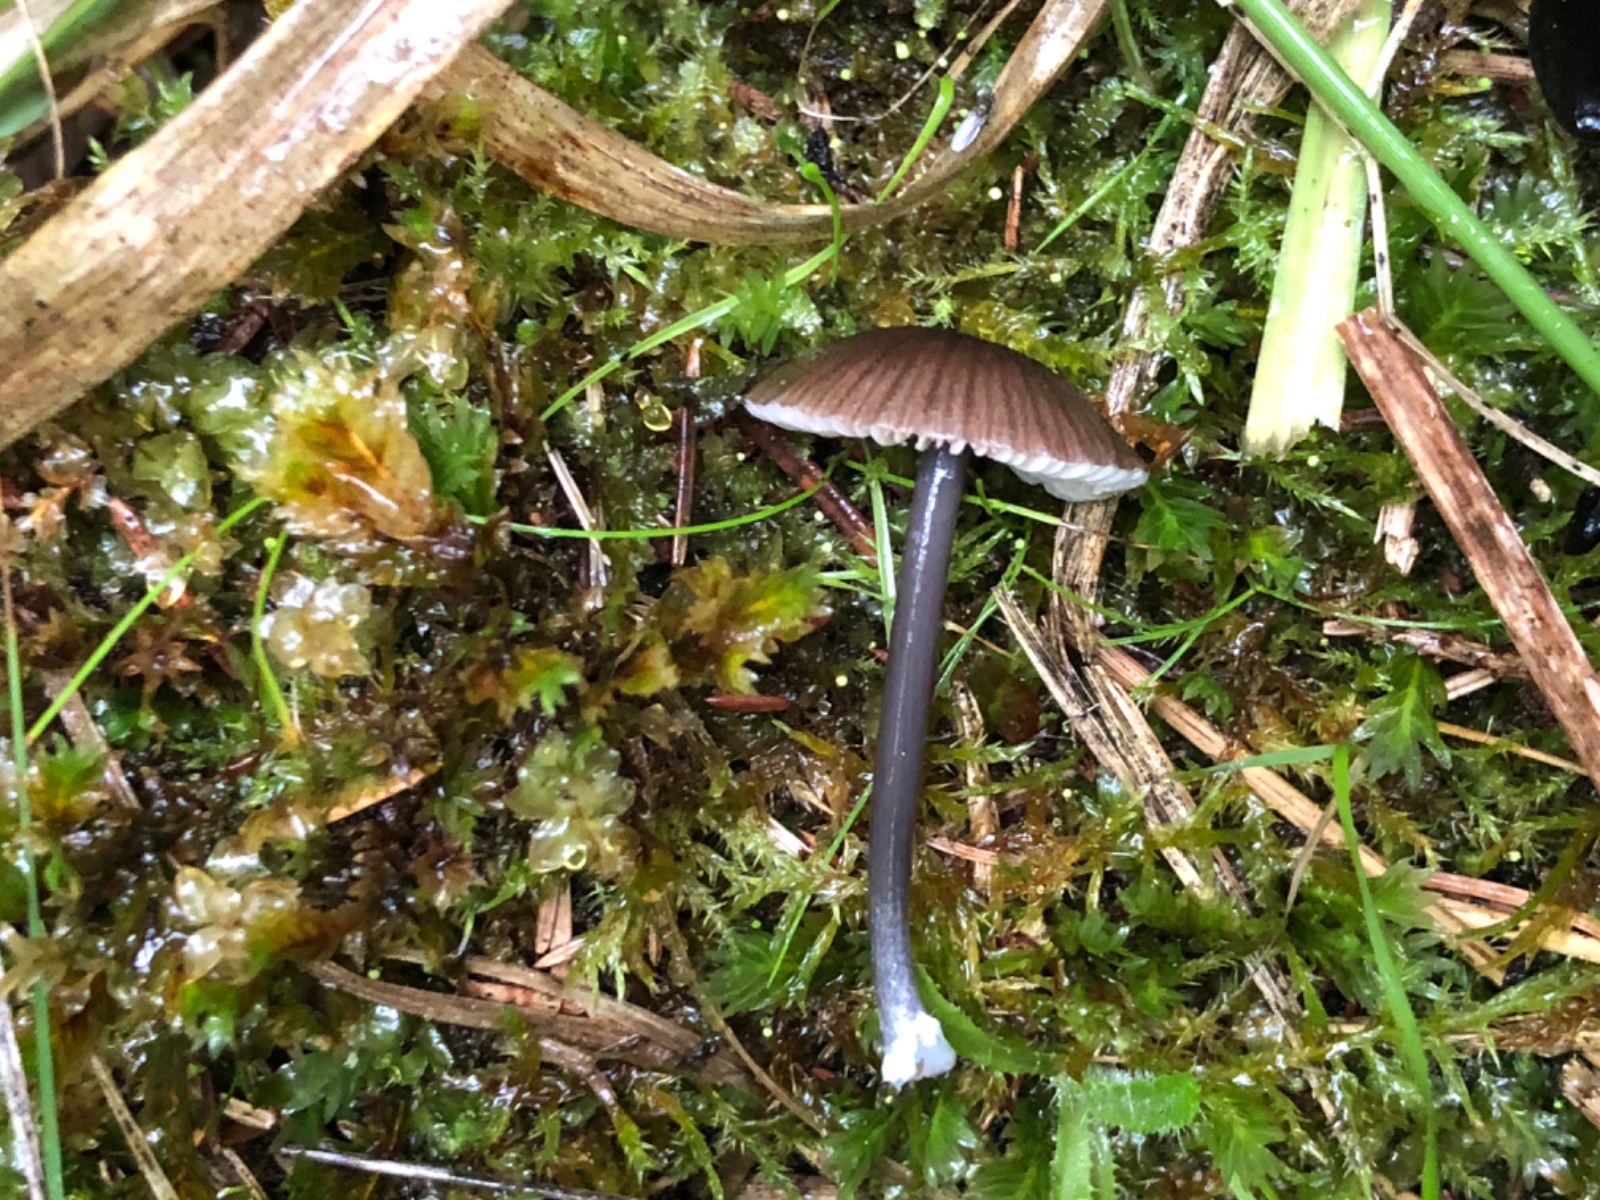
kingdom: Fungi
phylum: Basidiomycota
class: Agaricomycetes
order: Agaricales
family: Entolomataceae
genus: Entoloma
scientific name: Entoloma
